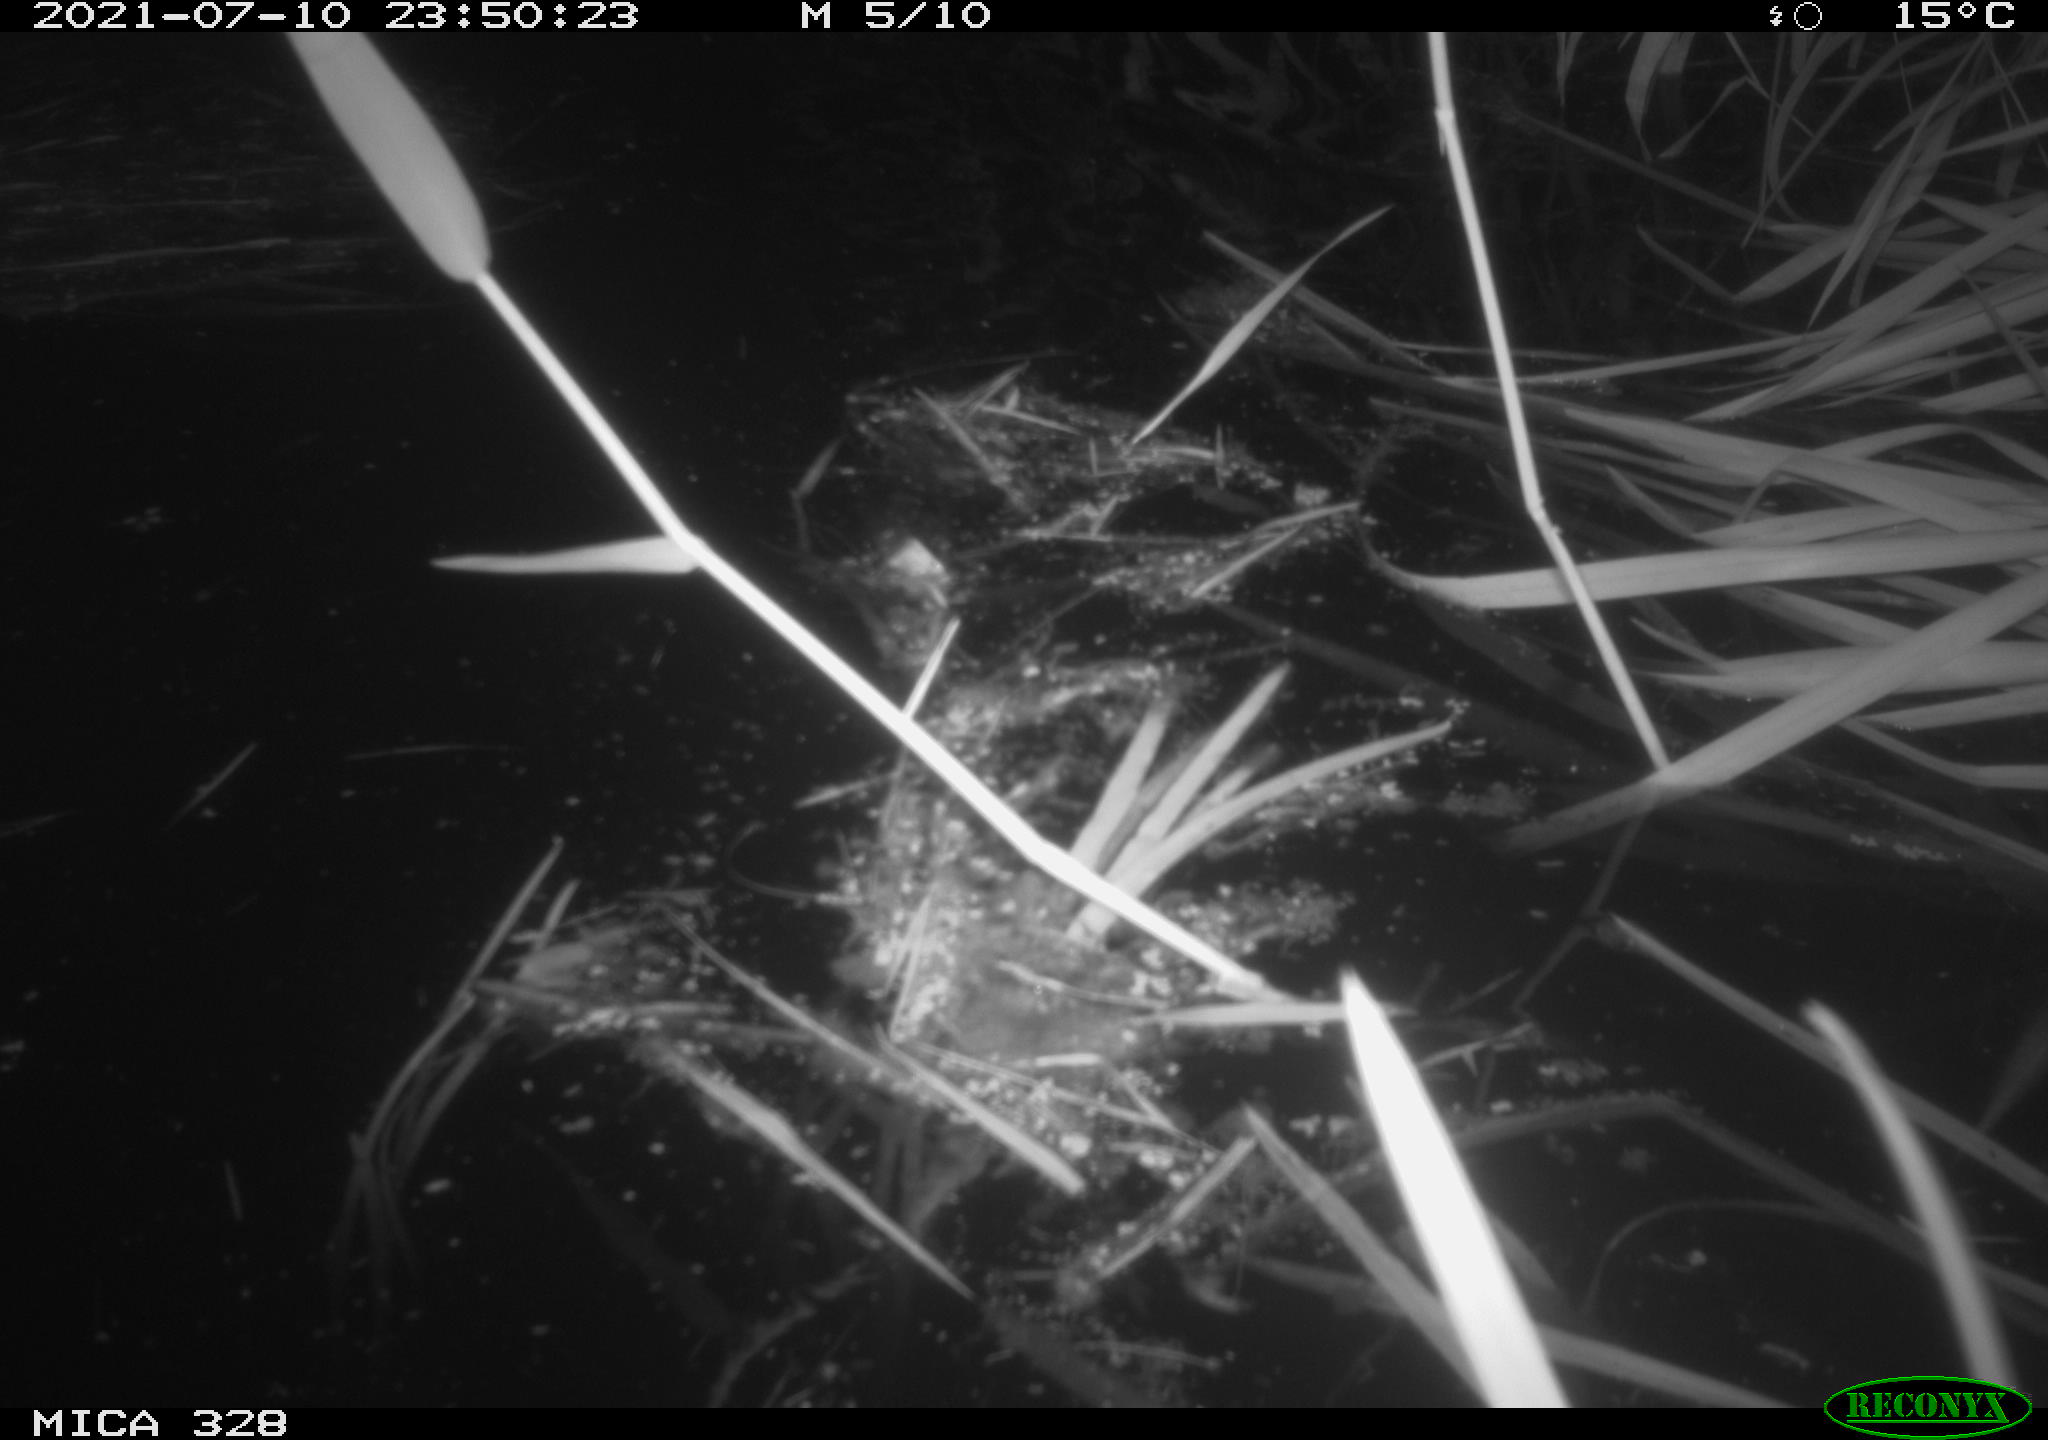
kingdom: Animalia
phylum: Chordata
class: Mammalia
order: Rodentia
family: Cricetidae
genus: Ondatra
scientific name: Ondatra zibethicus
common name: Muskrat
